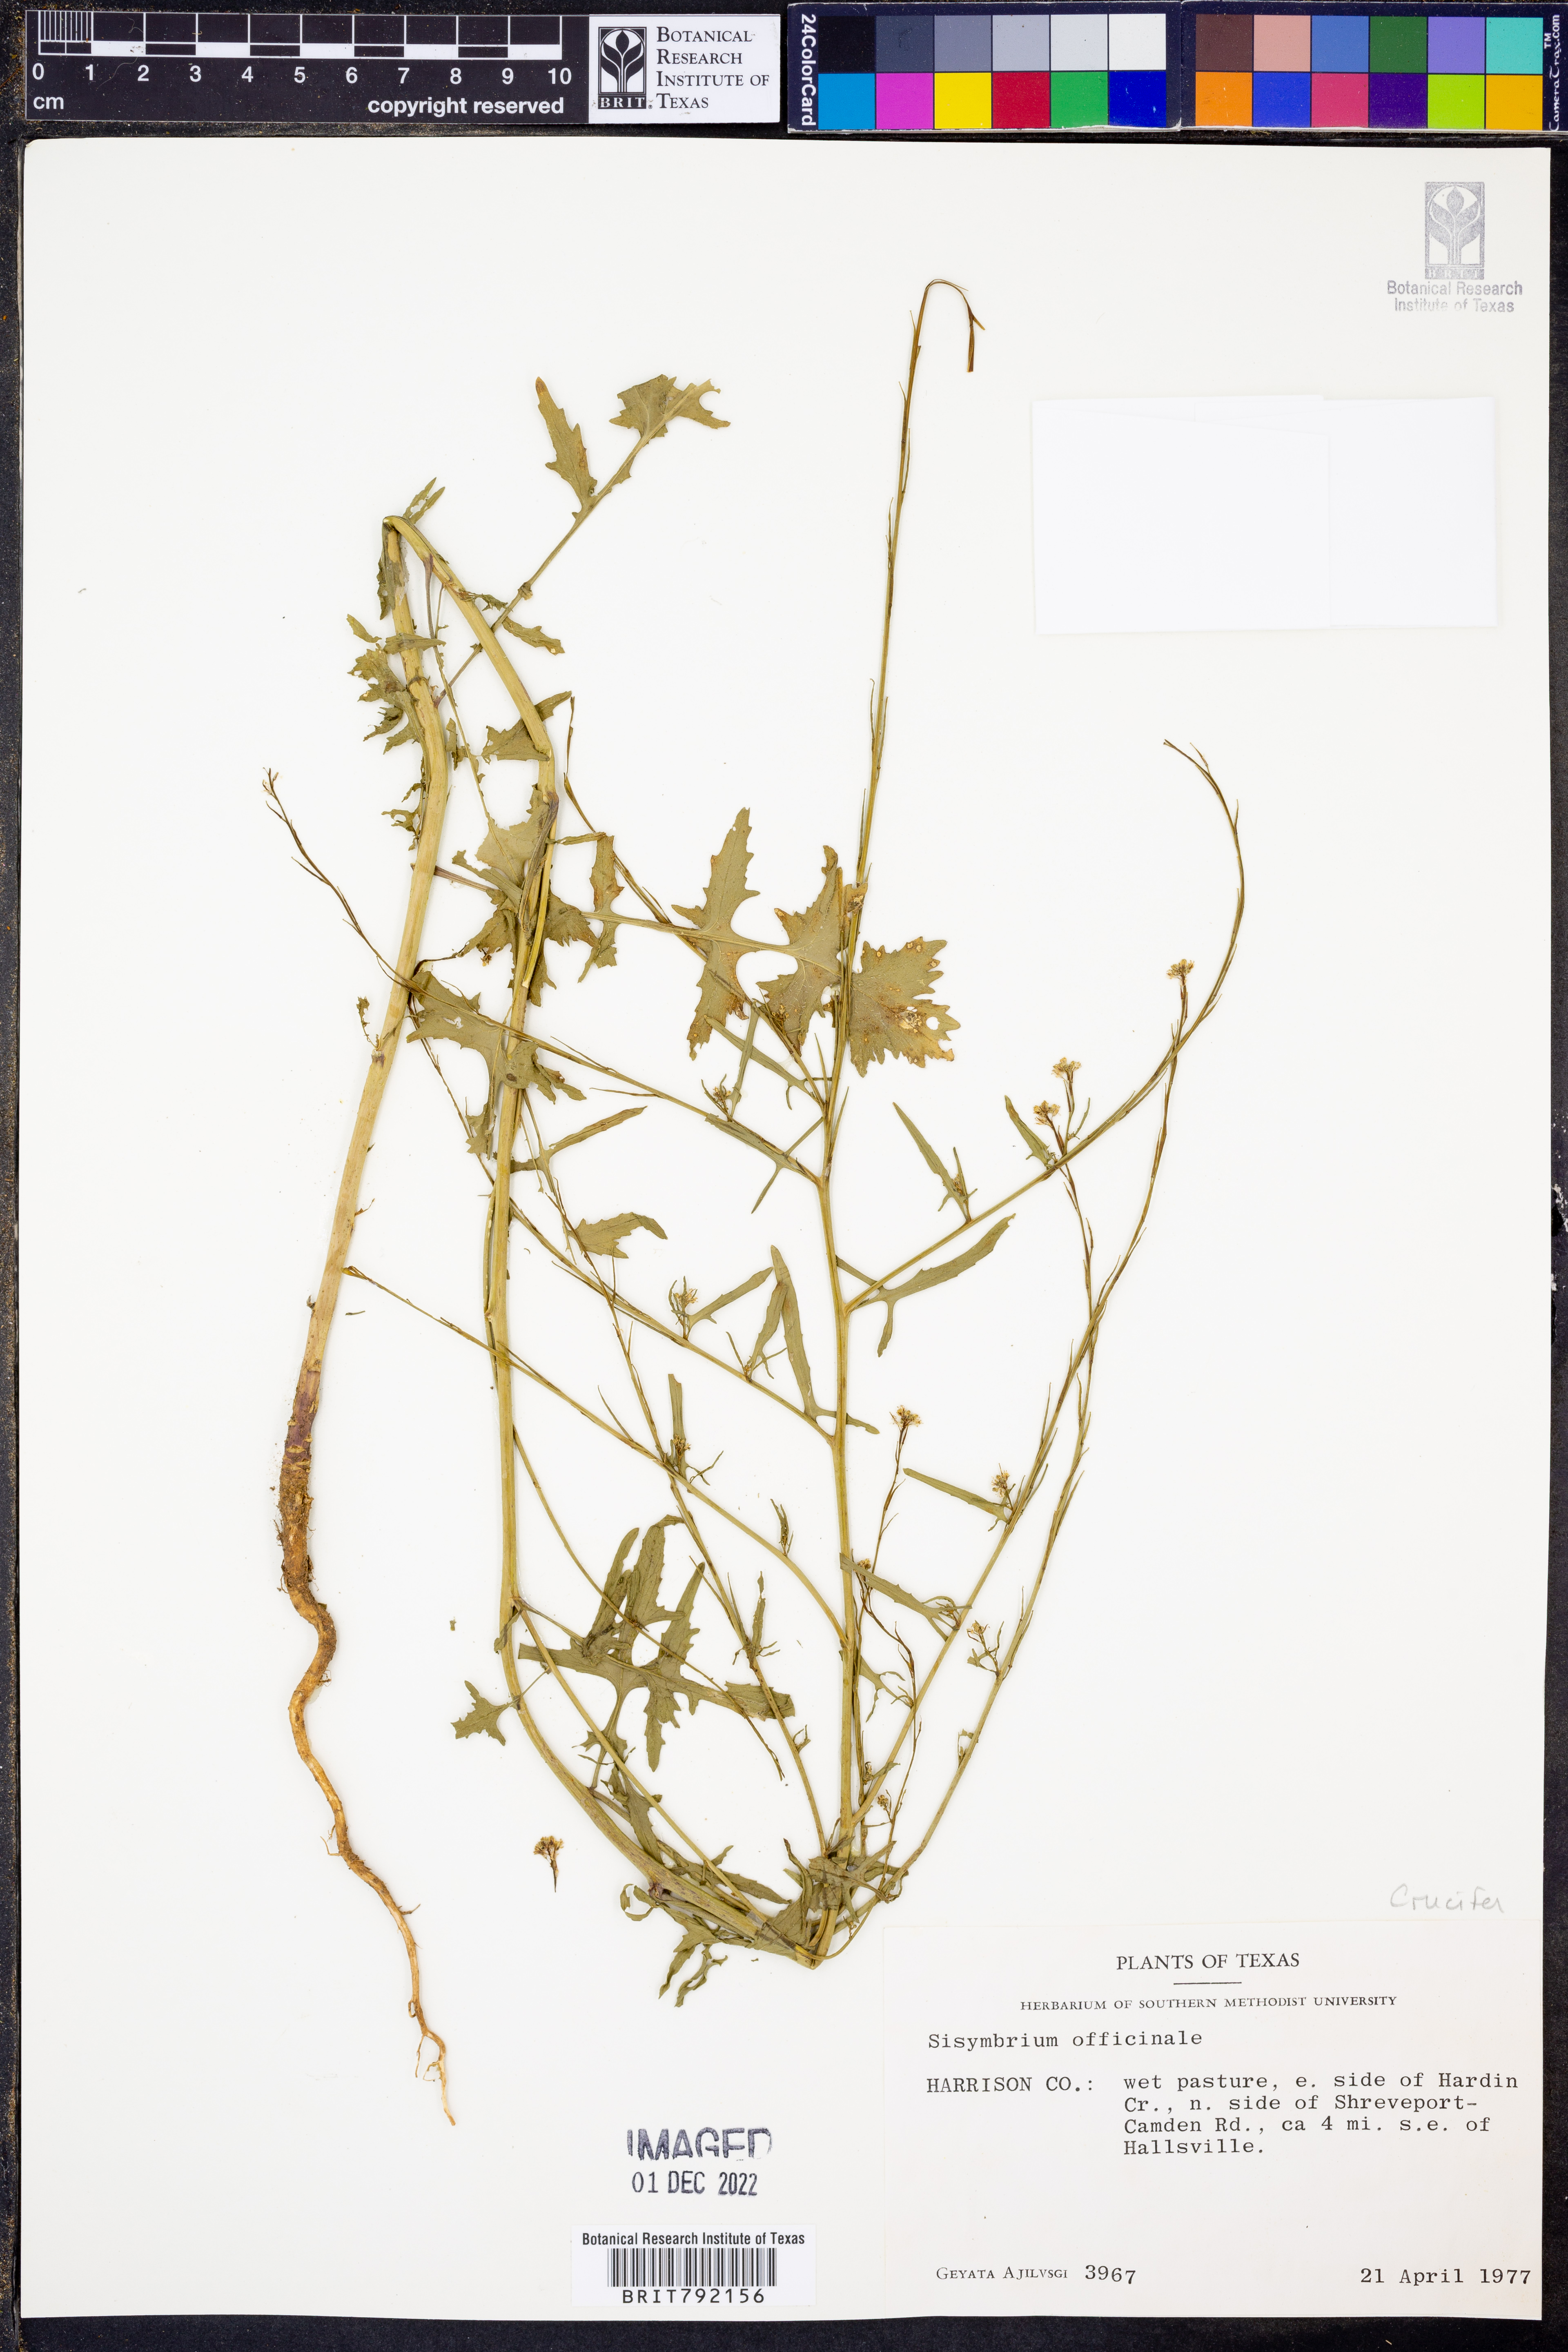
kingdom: Plantae
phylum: Tracheophyta
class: Magnoliopsida
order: Brassicales
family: Brassicaceae
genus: Sisymbrium
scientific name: Sisymbrium officinale
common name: Hedge mustard
